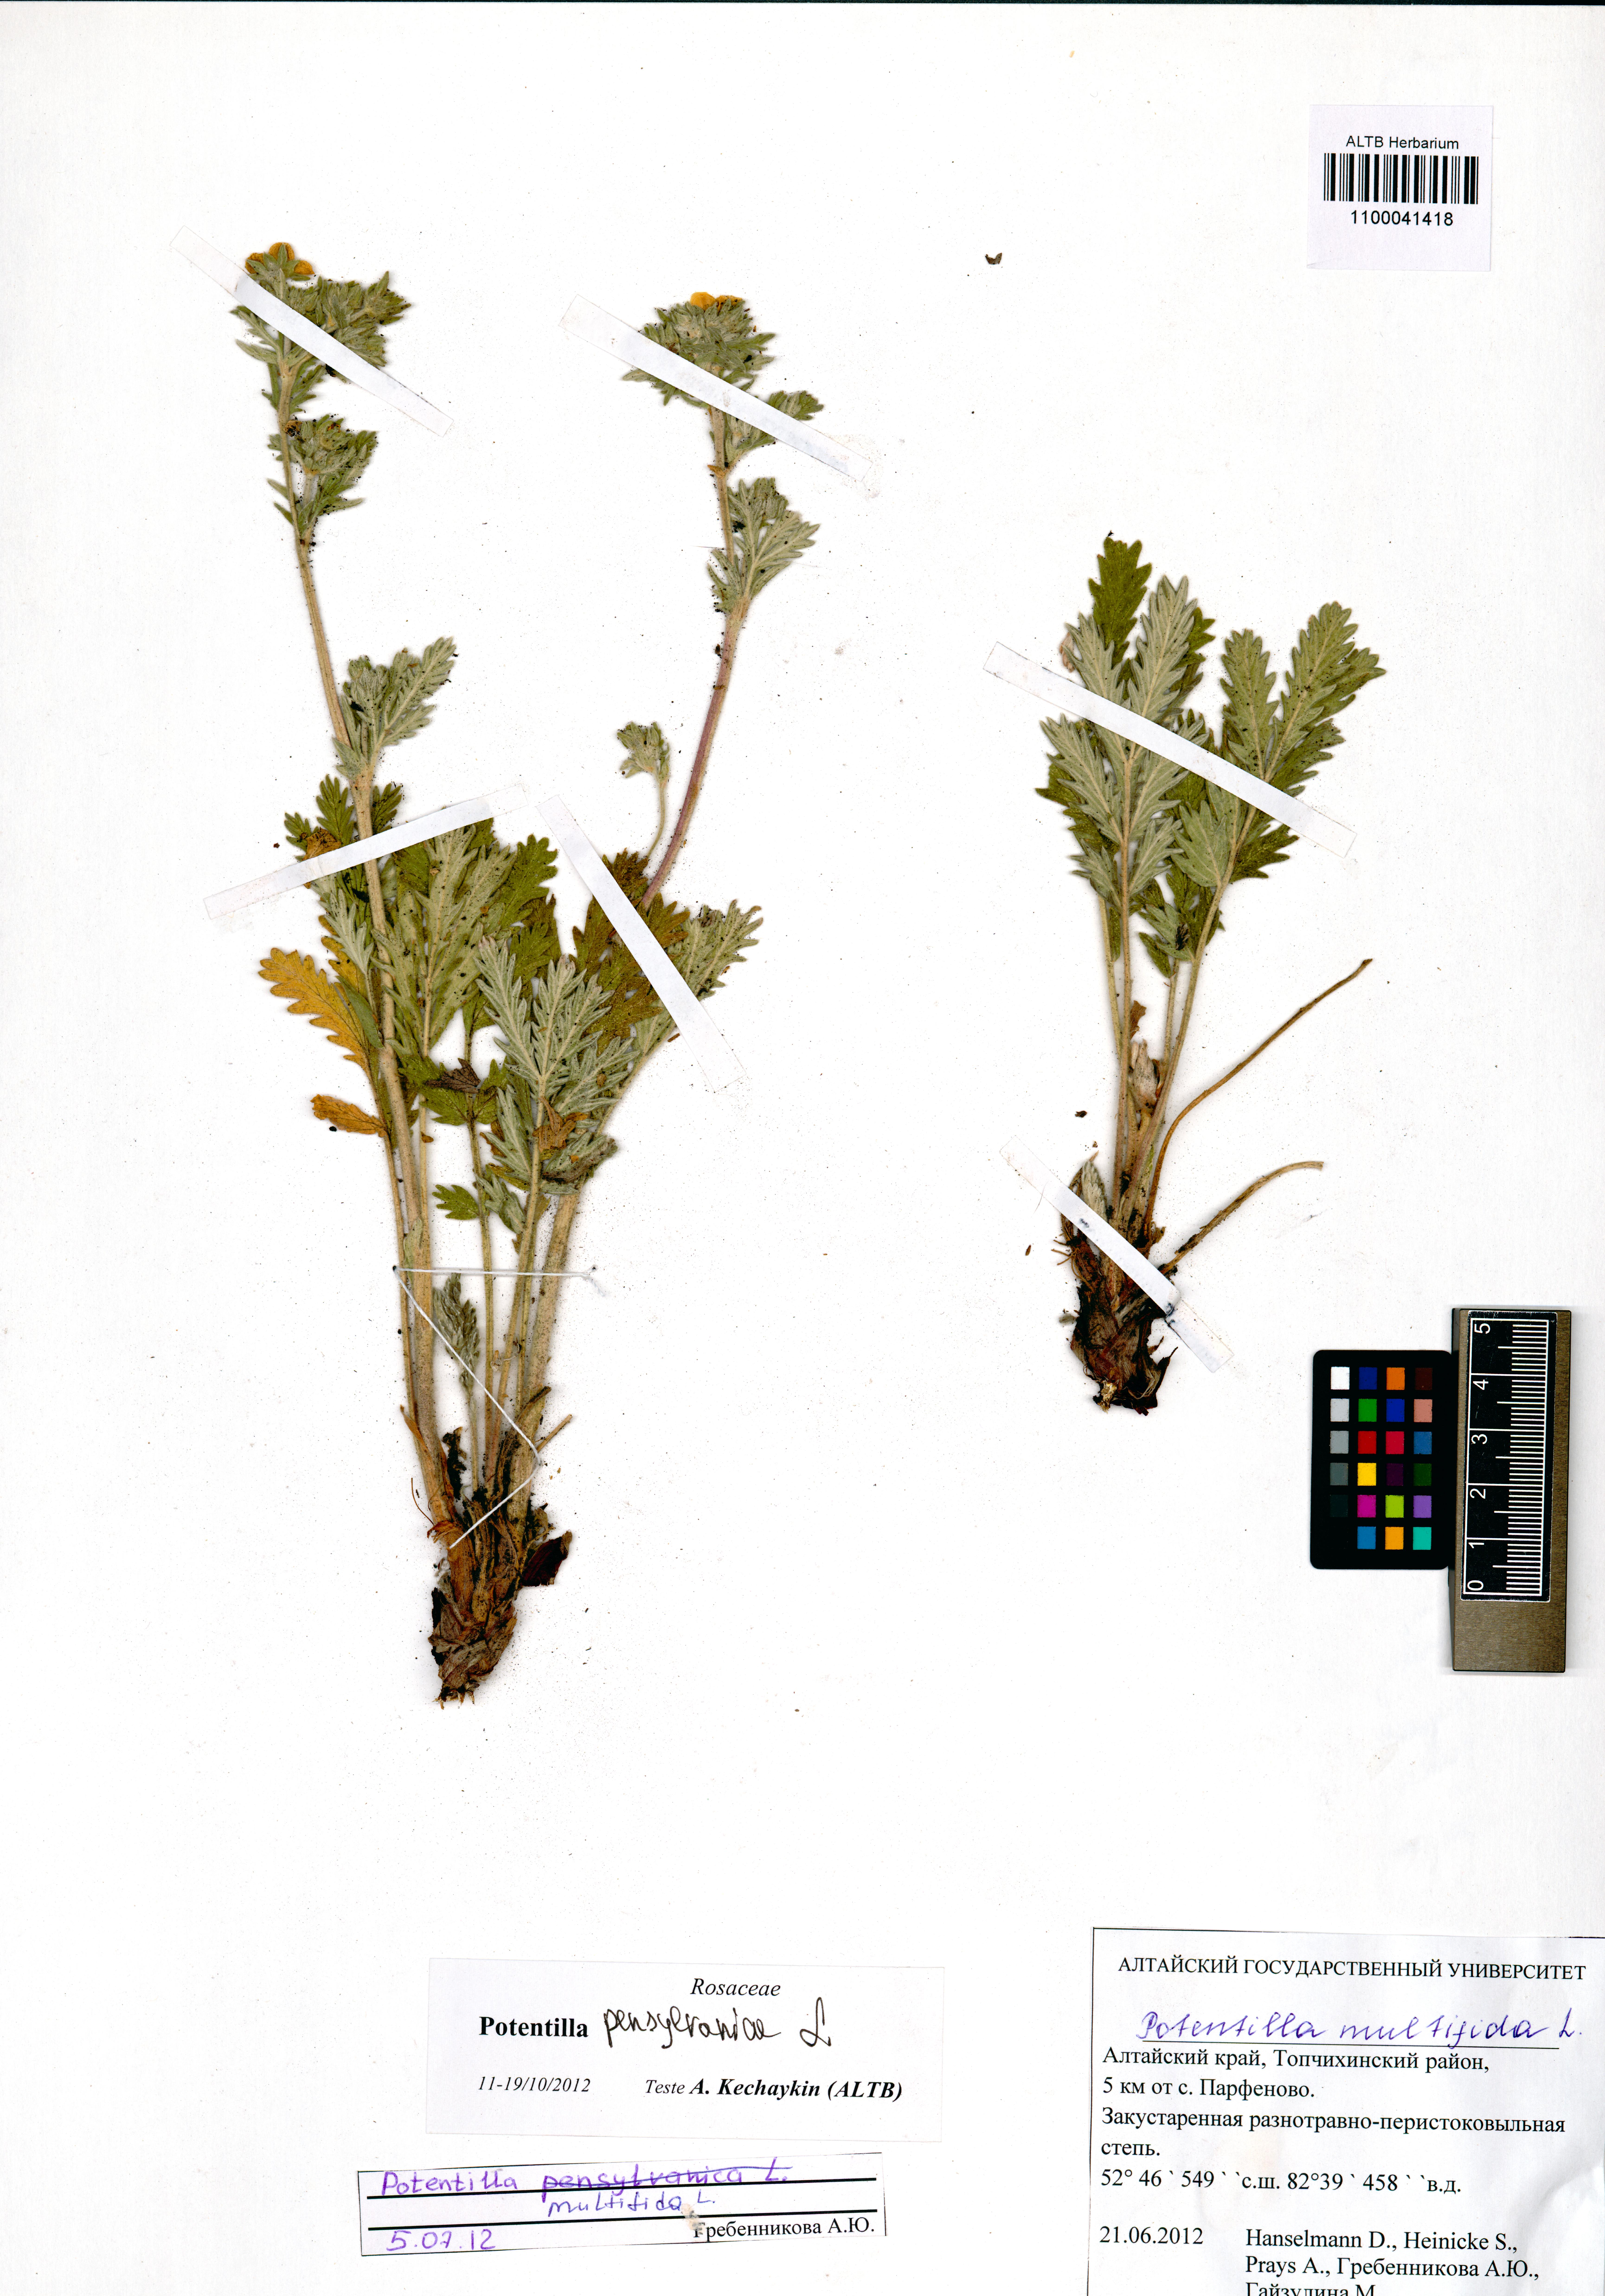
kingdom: Plantae
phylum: Tracheophyta
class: Magnoliopsida
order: Rosales
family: Rosaceae
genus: Potentilla
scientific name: Potentilla pensylvanica
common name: Pennsylvania cinquefoil
